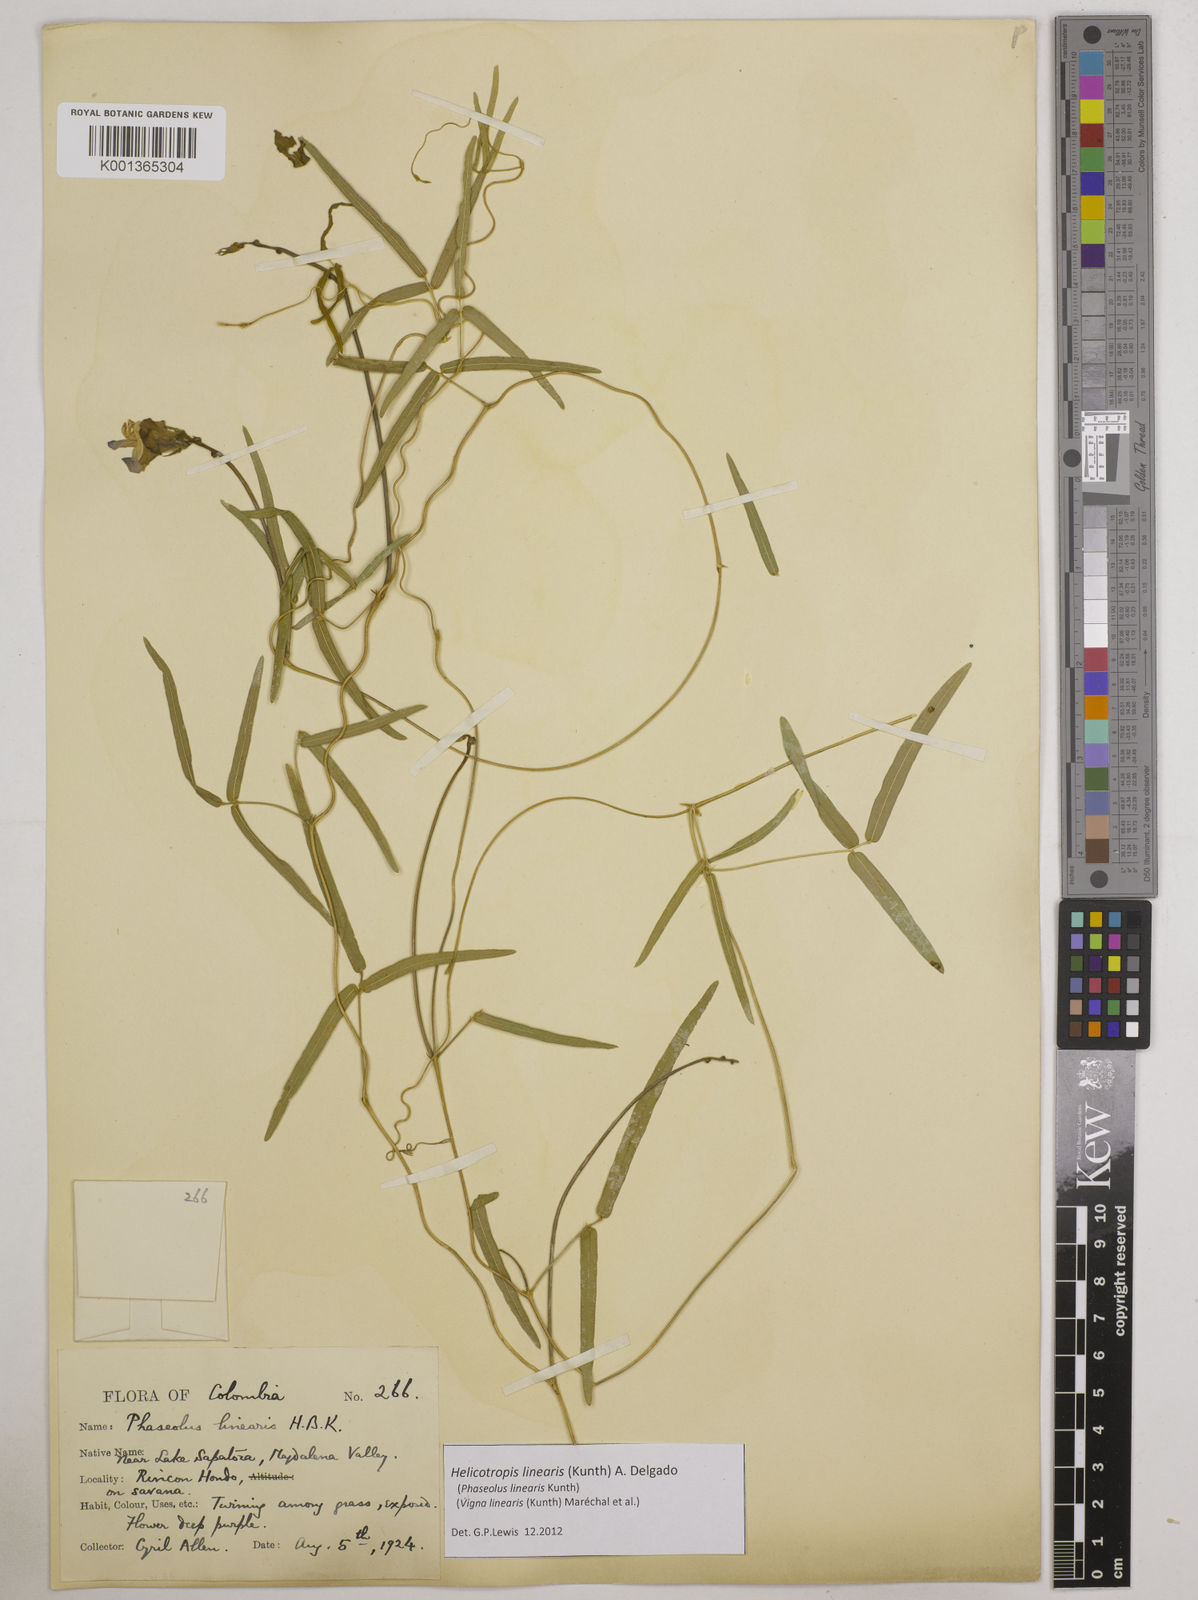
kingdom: Plantae
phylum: Tracheophyta
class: Magnoliopsida
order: Fabales
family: Fabaceae
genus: Helicotropis
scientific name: Helicotropis linearis
